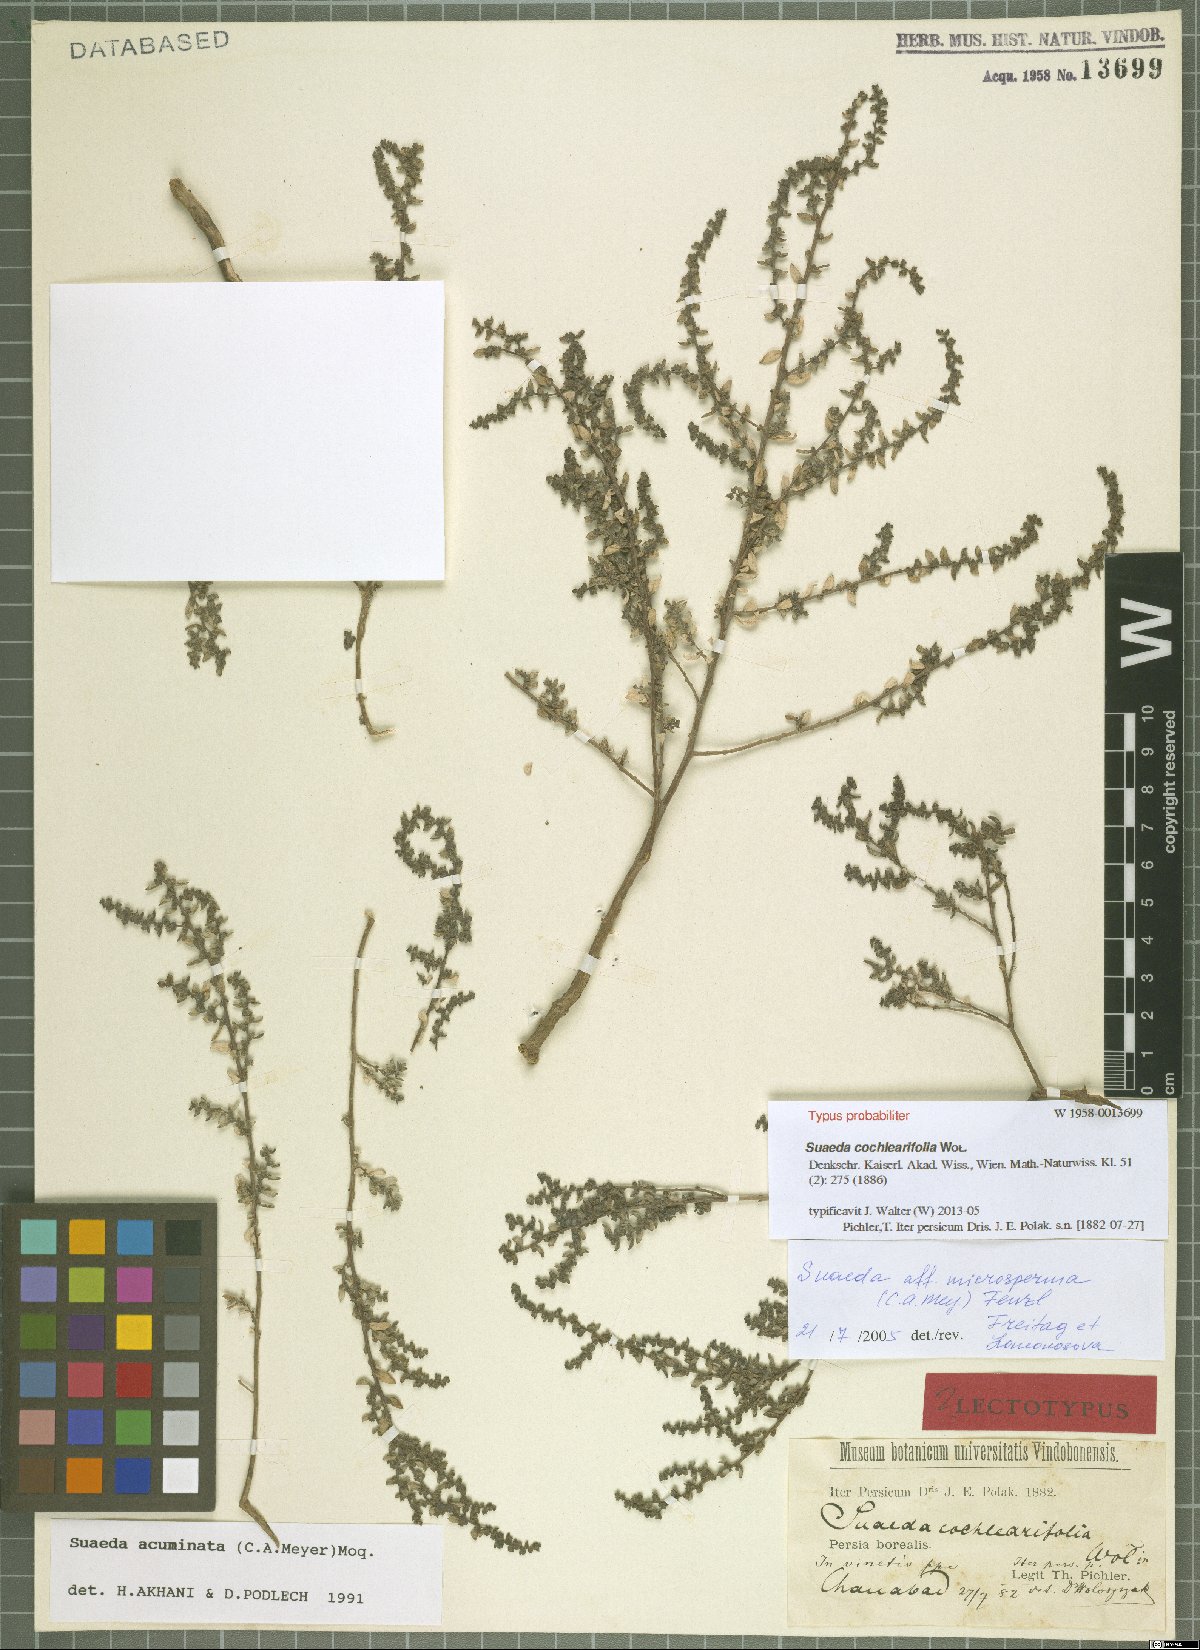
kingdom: Plantae
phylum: Tracheophyta
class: Magnoliopsida
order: Caryophyllales
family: Amaranthaceae
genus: Suaeda
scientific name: Suaeda acuminata
